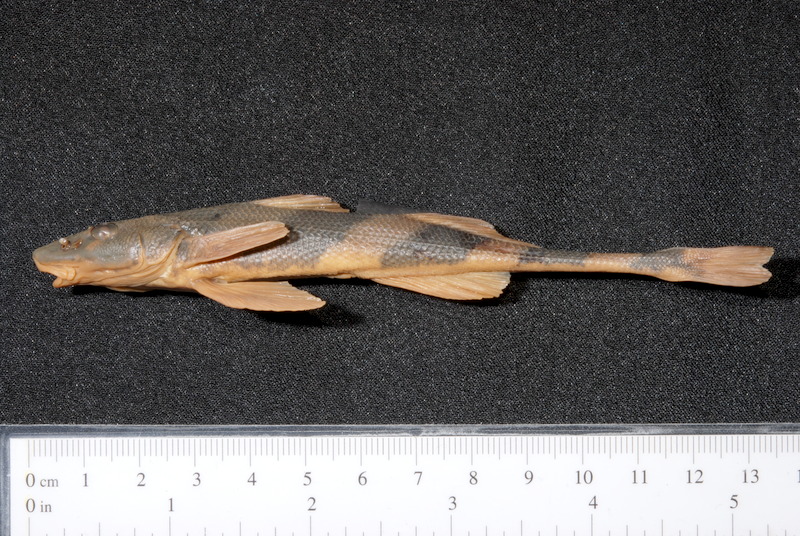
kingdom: Animalia
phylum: Chordata
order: Perciformes
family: Percidae
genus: Zingel
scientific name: Zingel streber
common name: Danube streber
